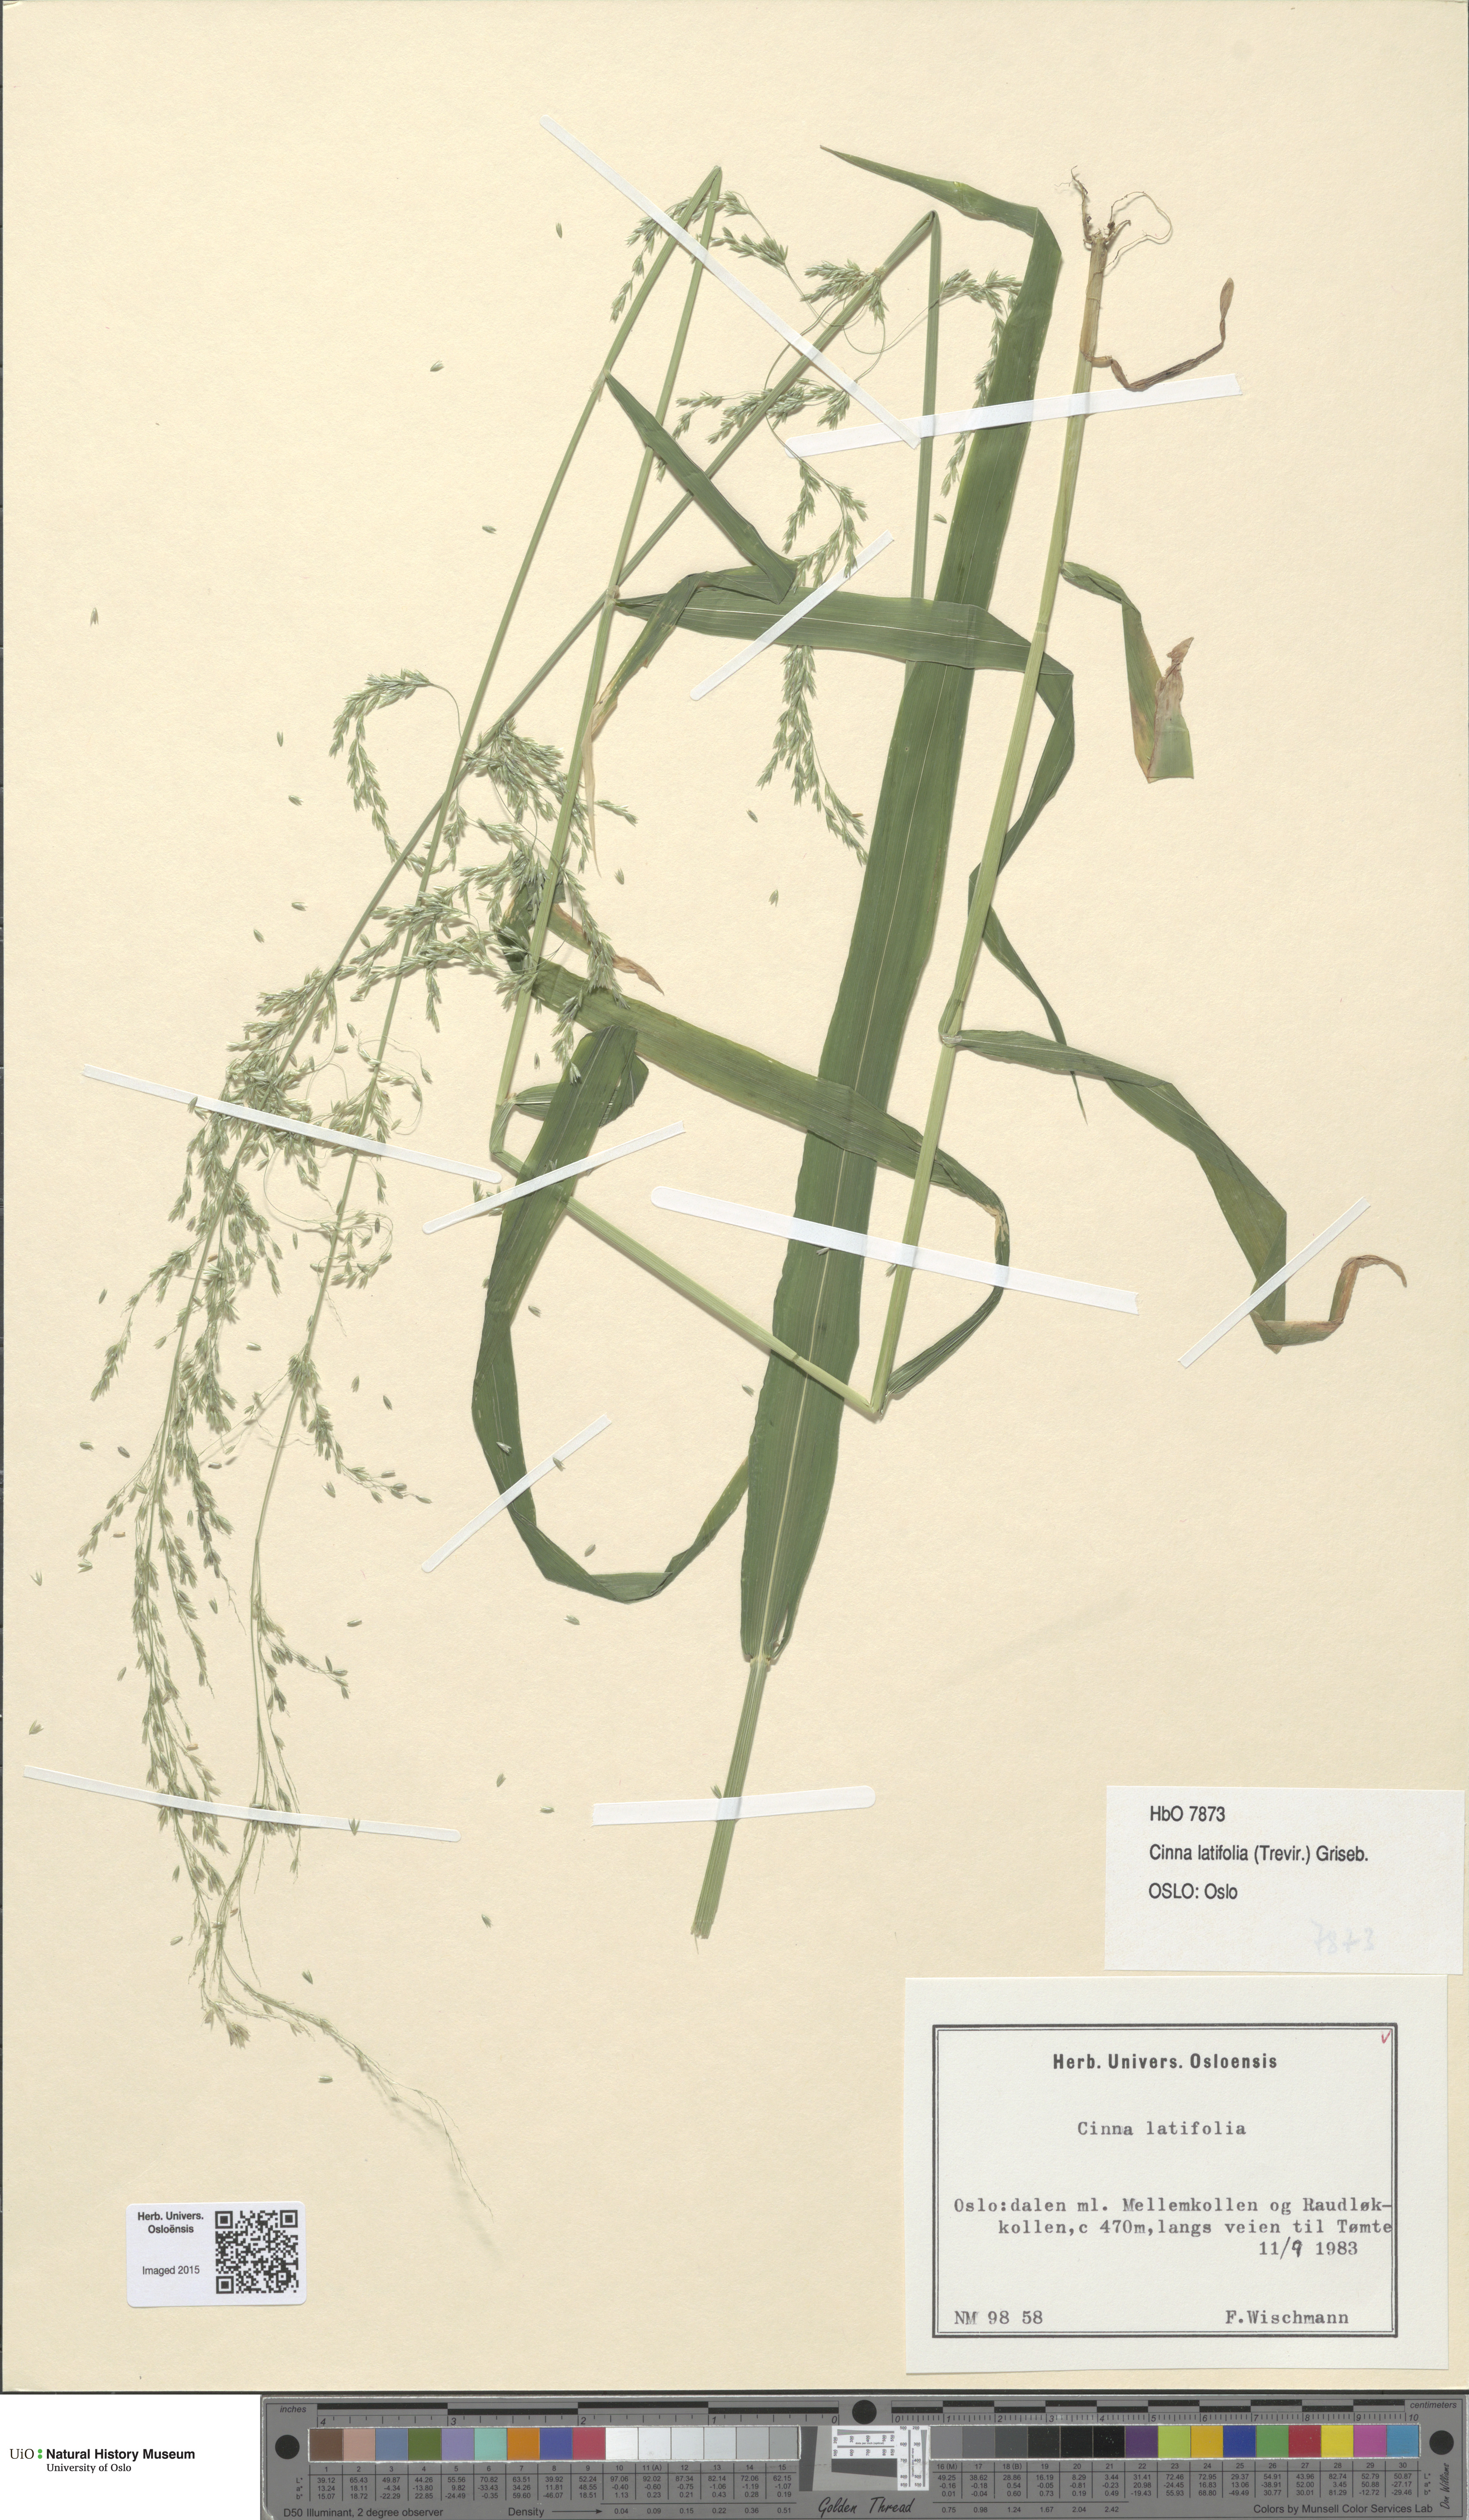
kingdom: Plantae
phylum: Tracheophyta
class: Liliopsida
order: Poales
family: Poaceae
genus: Cinna
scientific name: Cinna latifolia
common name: Drooping woodreed
